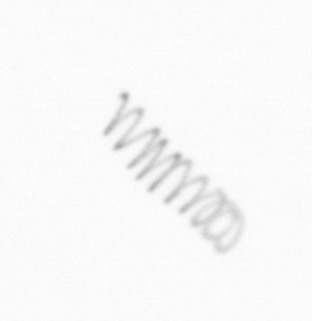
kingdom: Chromista
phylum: Ochrophyta
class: Bacillariophyceae
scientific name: Bacillariophyceae
